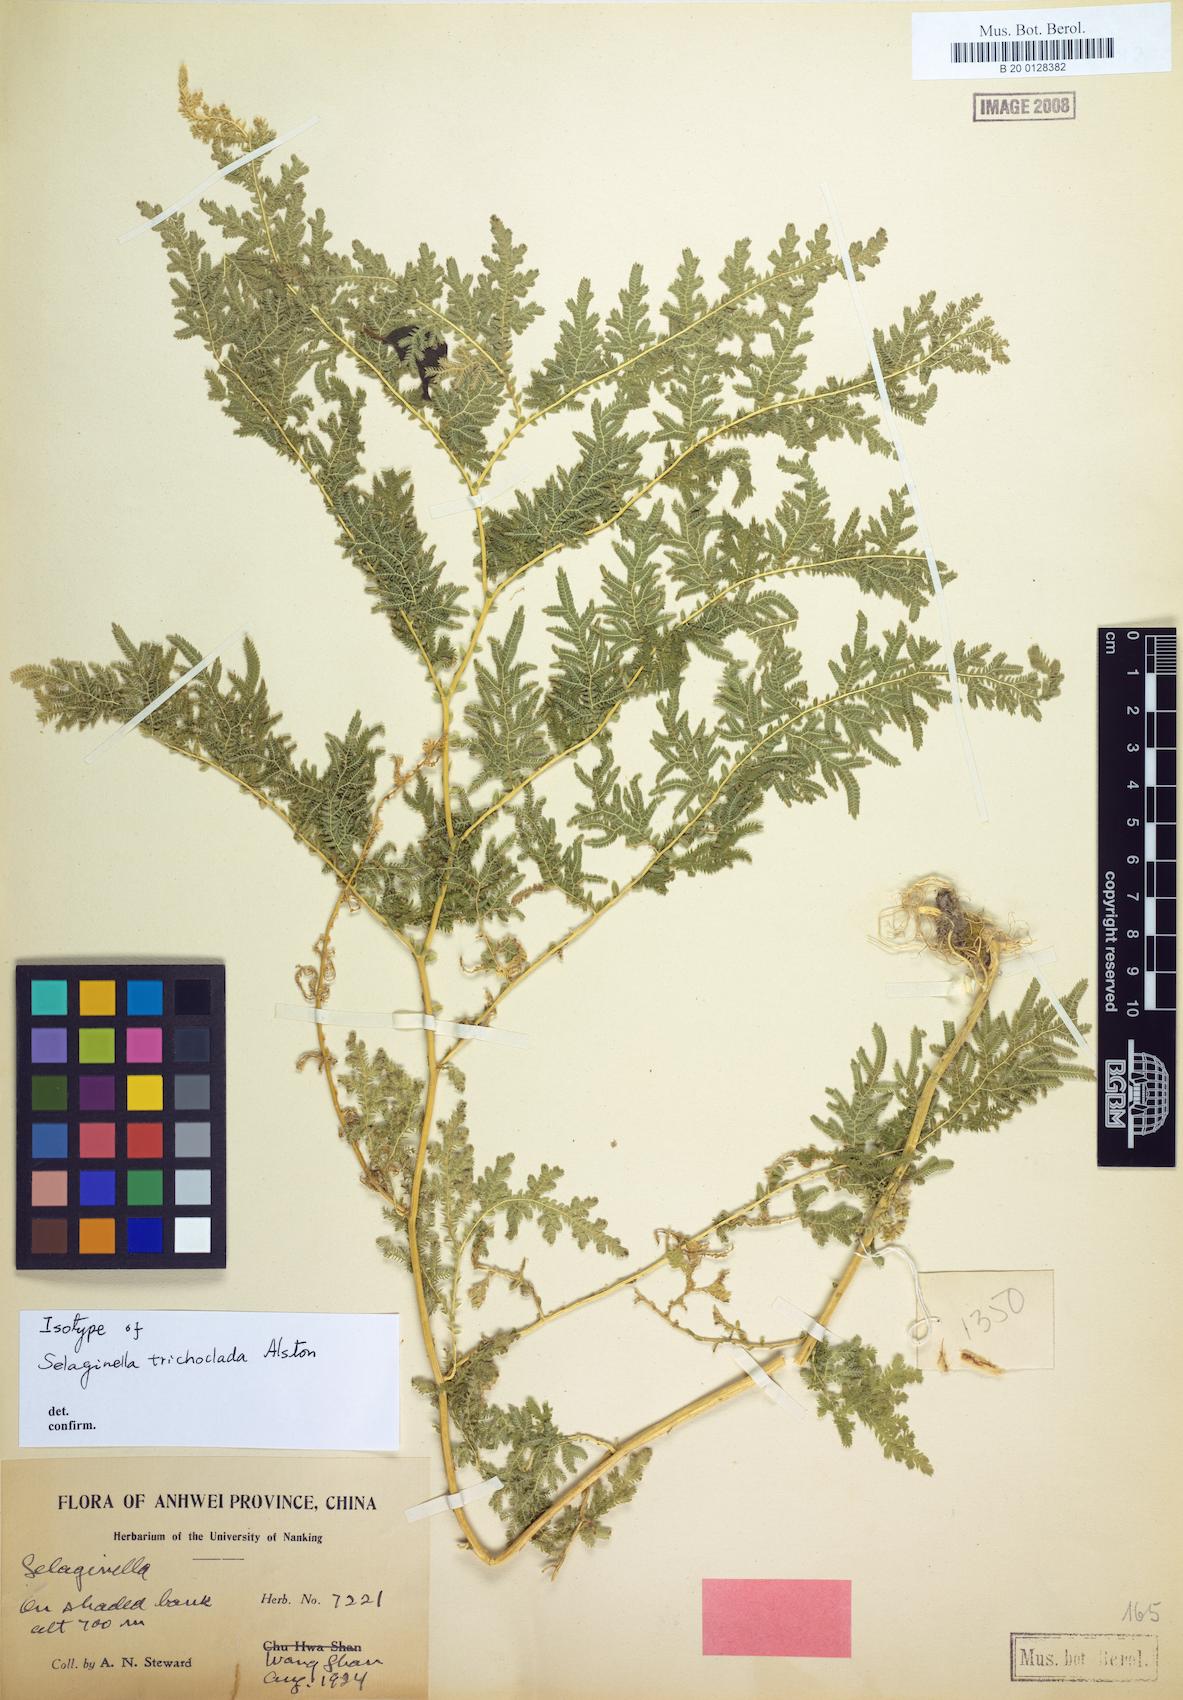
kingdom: Plantae
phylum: Tracheophyta
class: Lycopodiopsida
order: Selaginellales
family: Selaginellaceae
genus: Selaginella
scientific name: Selaginella trichoclada
